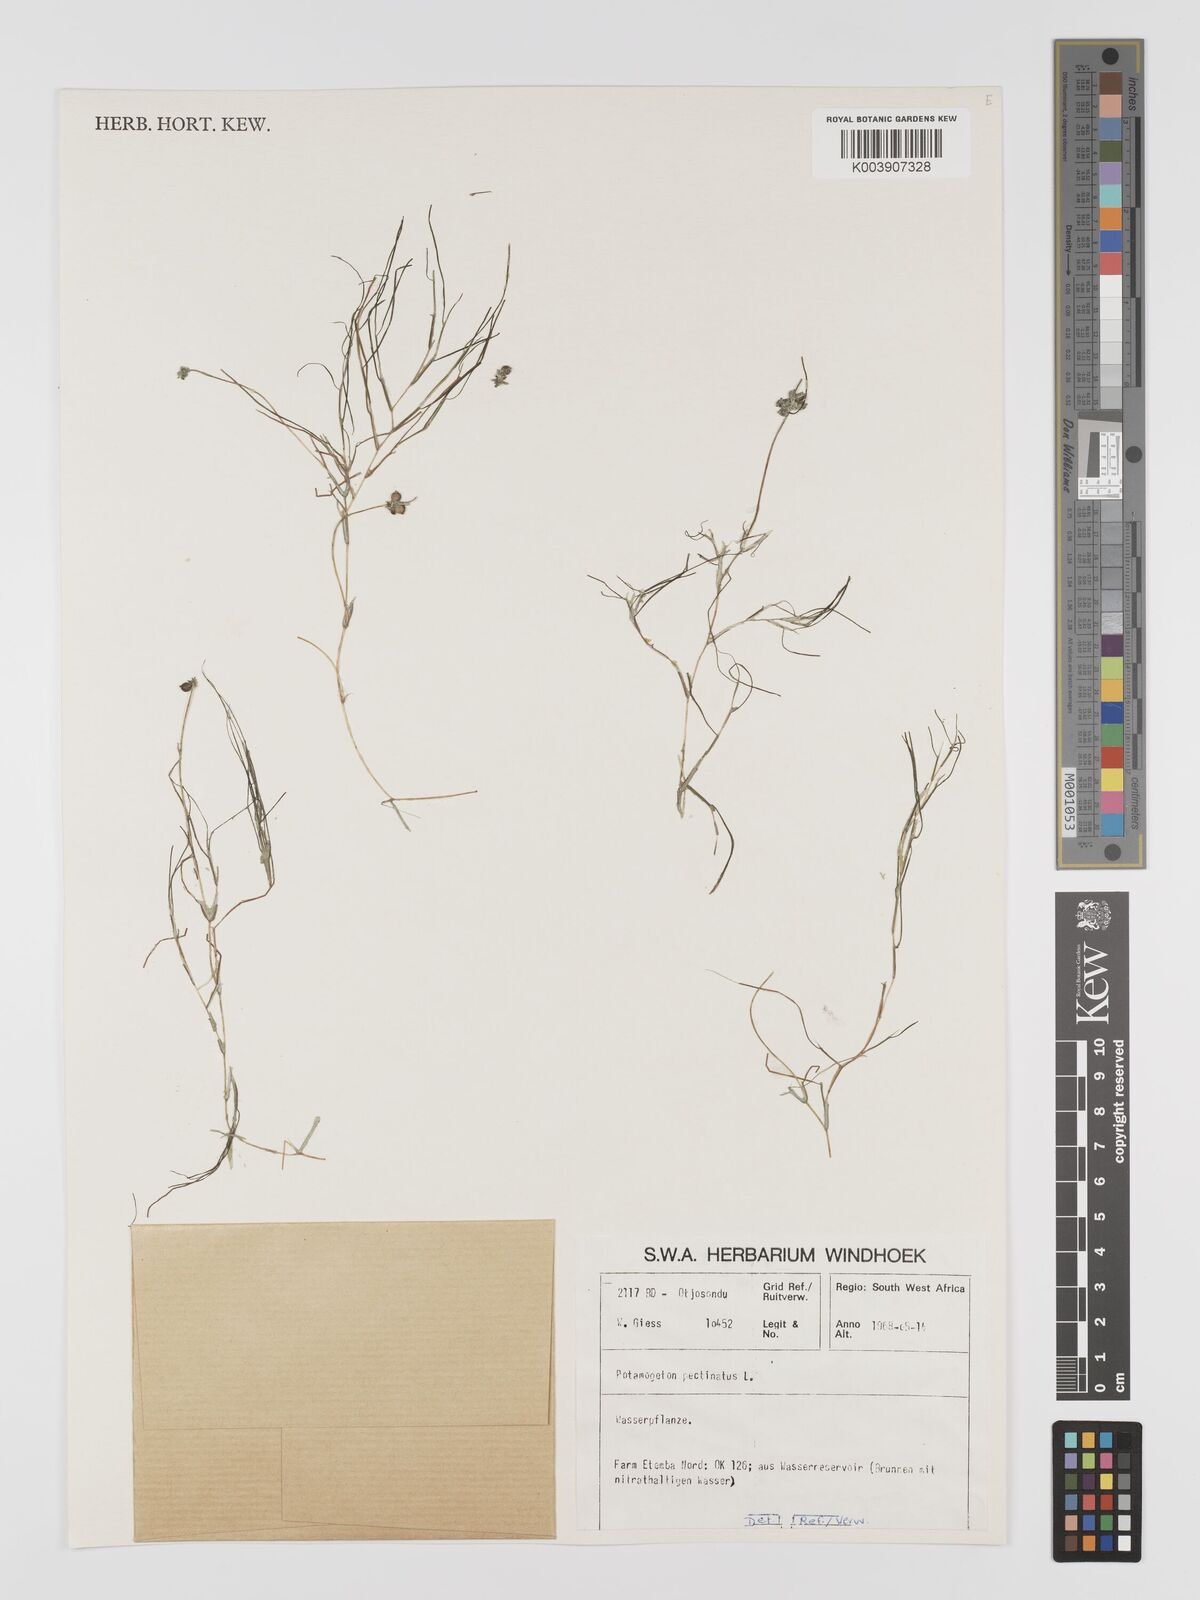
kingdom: Plantae
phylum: Tracheophyta
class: Liliopsida
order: Alismatales
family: Potamogetonaceae
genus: Stuckenia
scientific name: Stuckenia pectinata
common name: Sago pondweed
